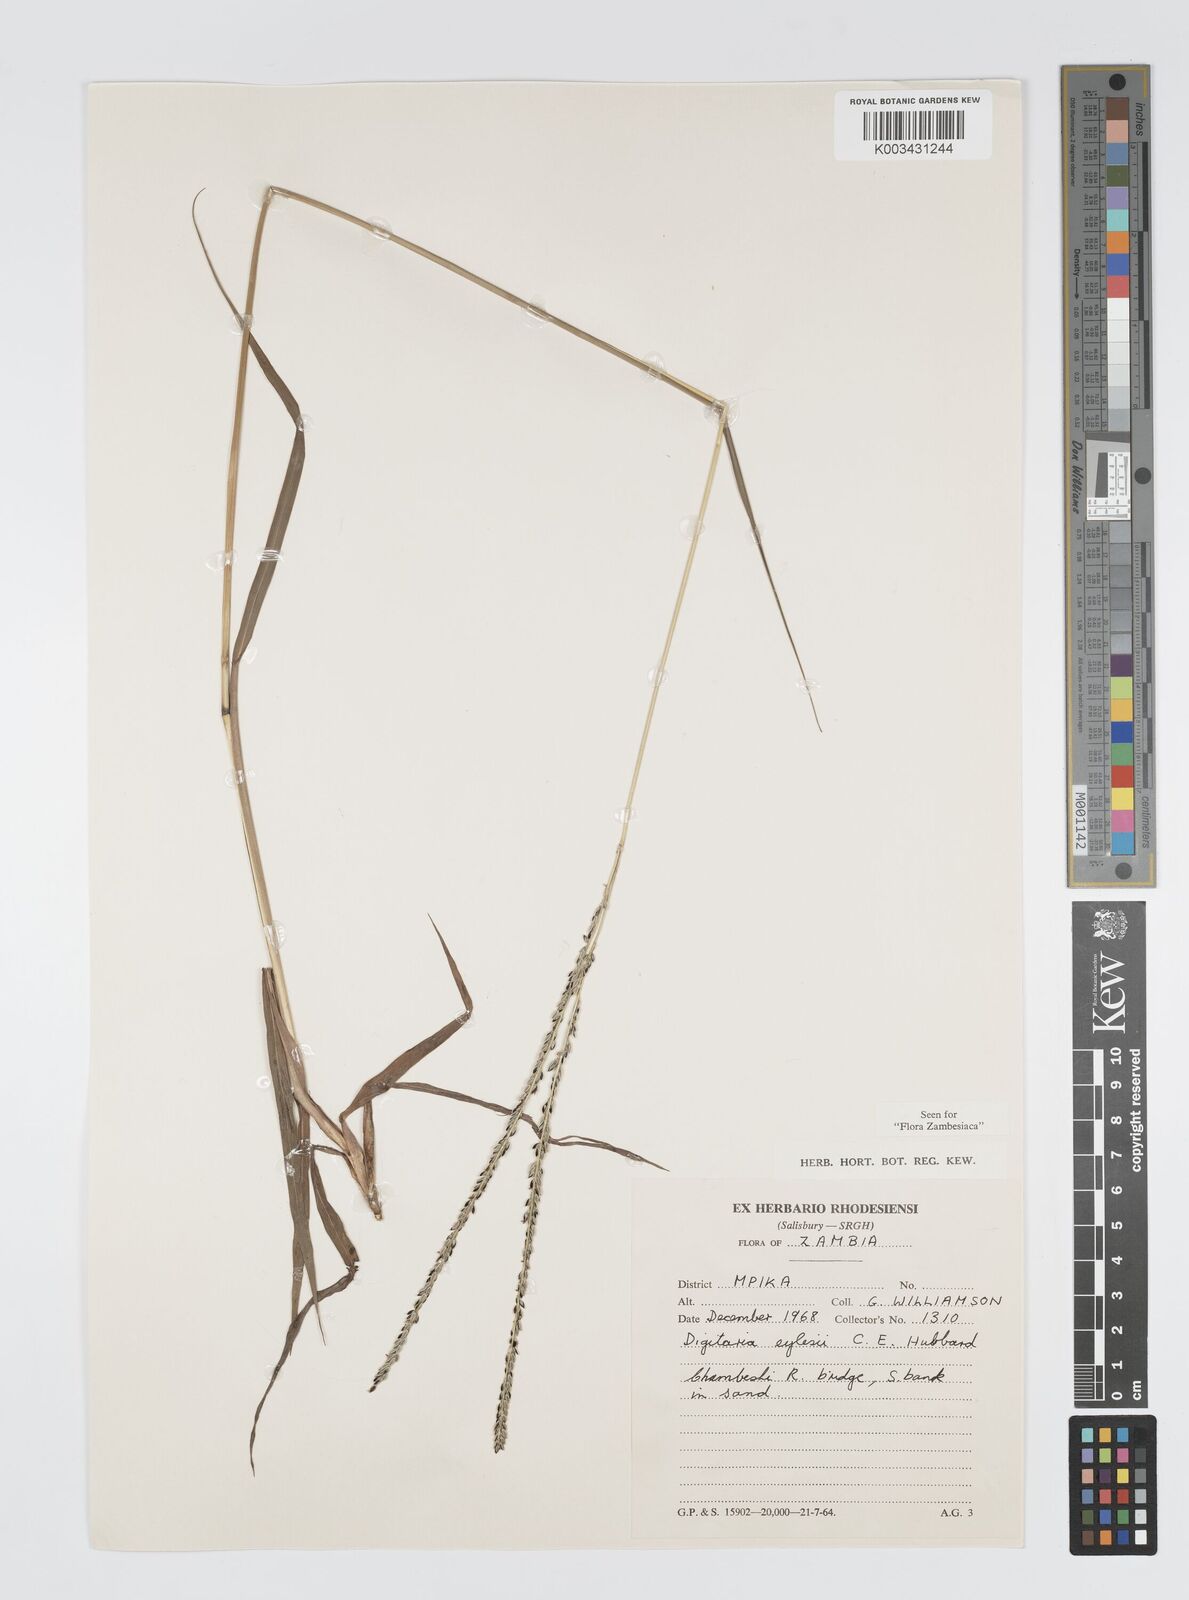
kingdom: Plantae
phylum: Tracheophyta
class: Liliopsida
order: Poales
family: Poaceae
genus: Digitaria
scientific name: Digitaria hyalina
